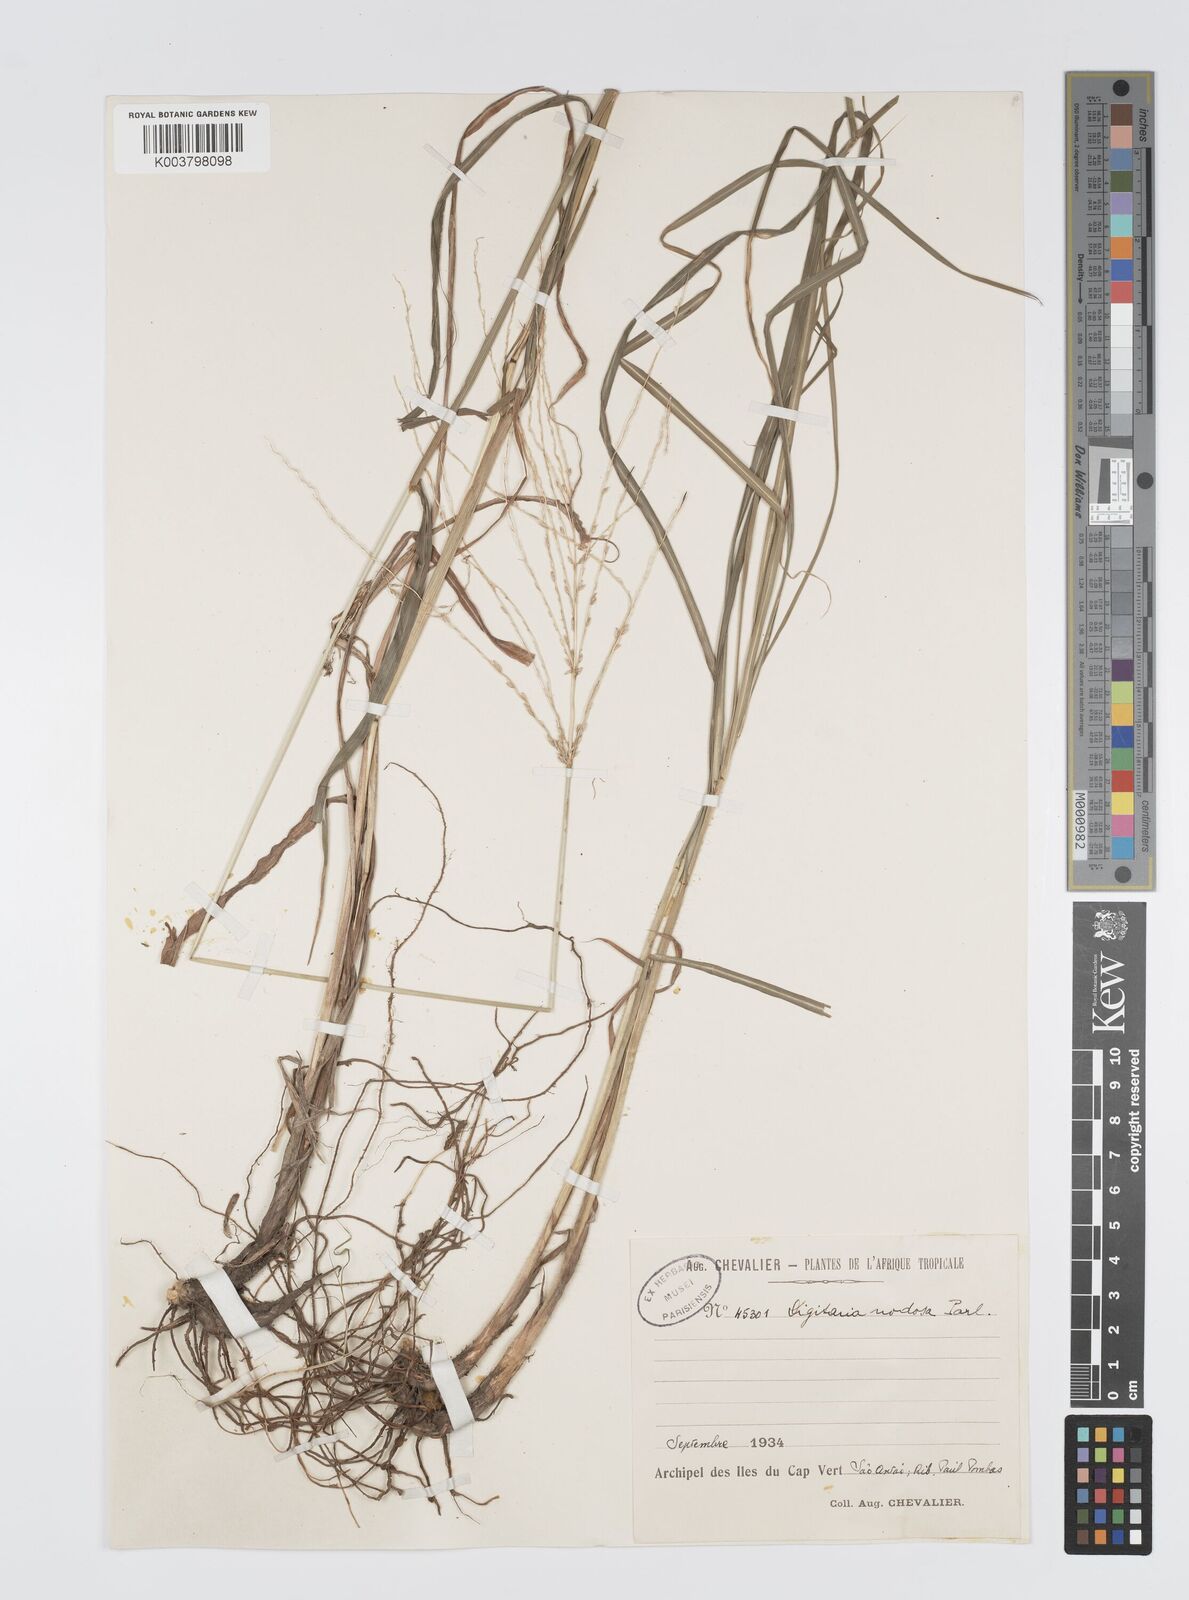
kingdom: Plantae
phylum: Tracheophyta
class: Liliopsida
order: Poales
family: Poaceae
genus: Digitaria
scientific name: Digitaria milanjiana
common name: Madagascar crabgrass
